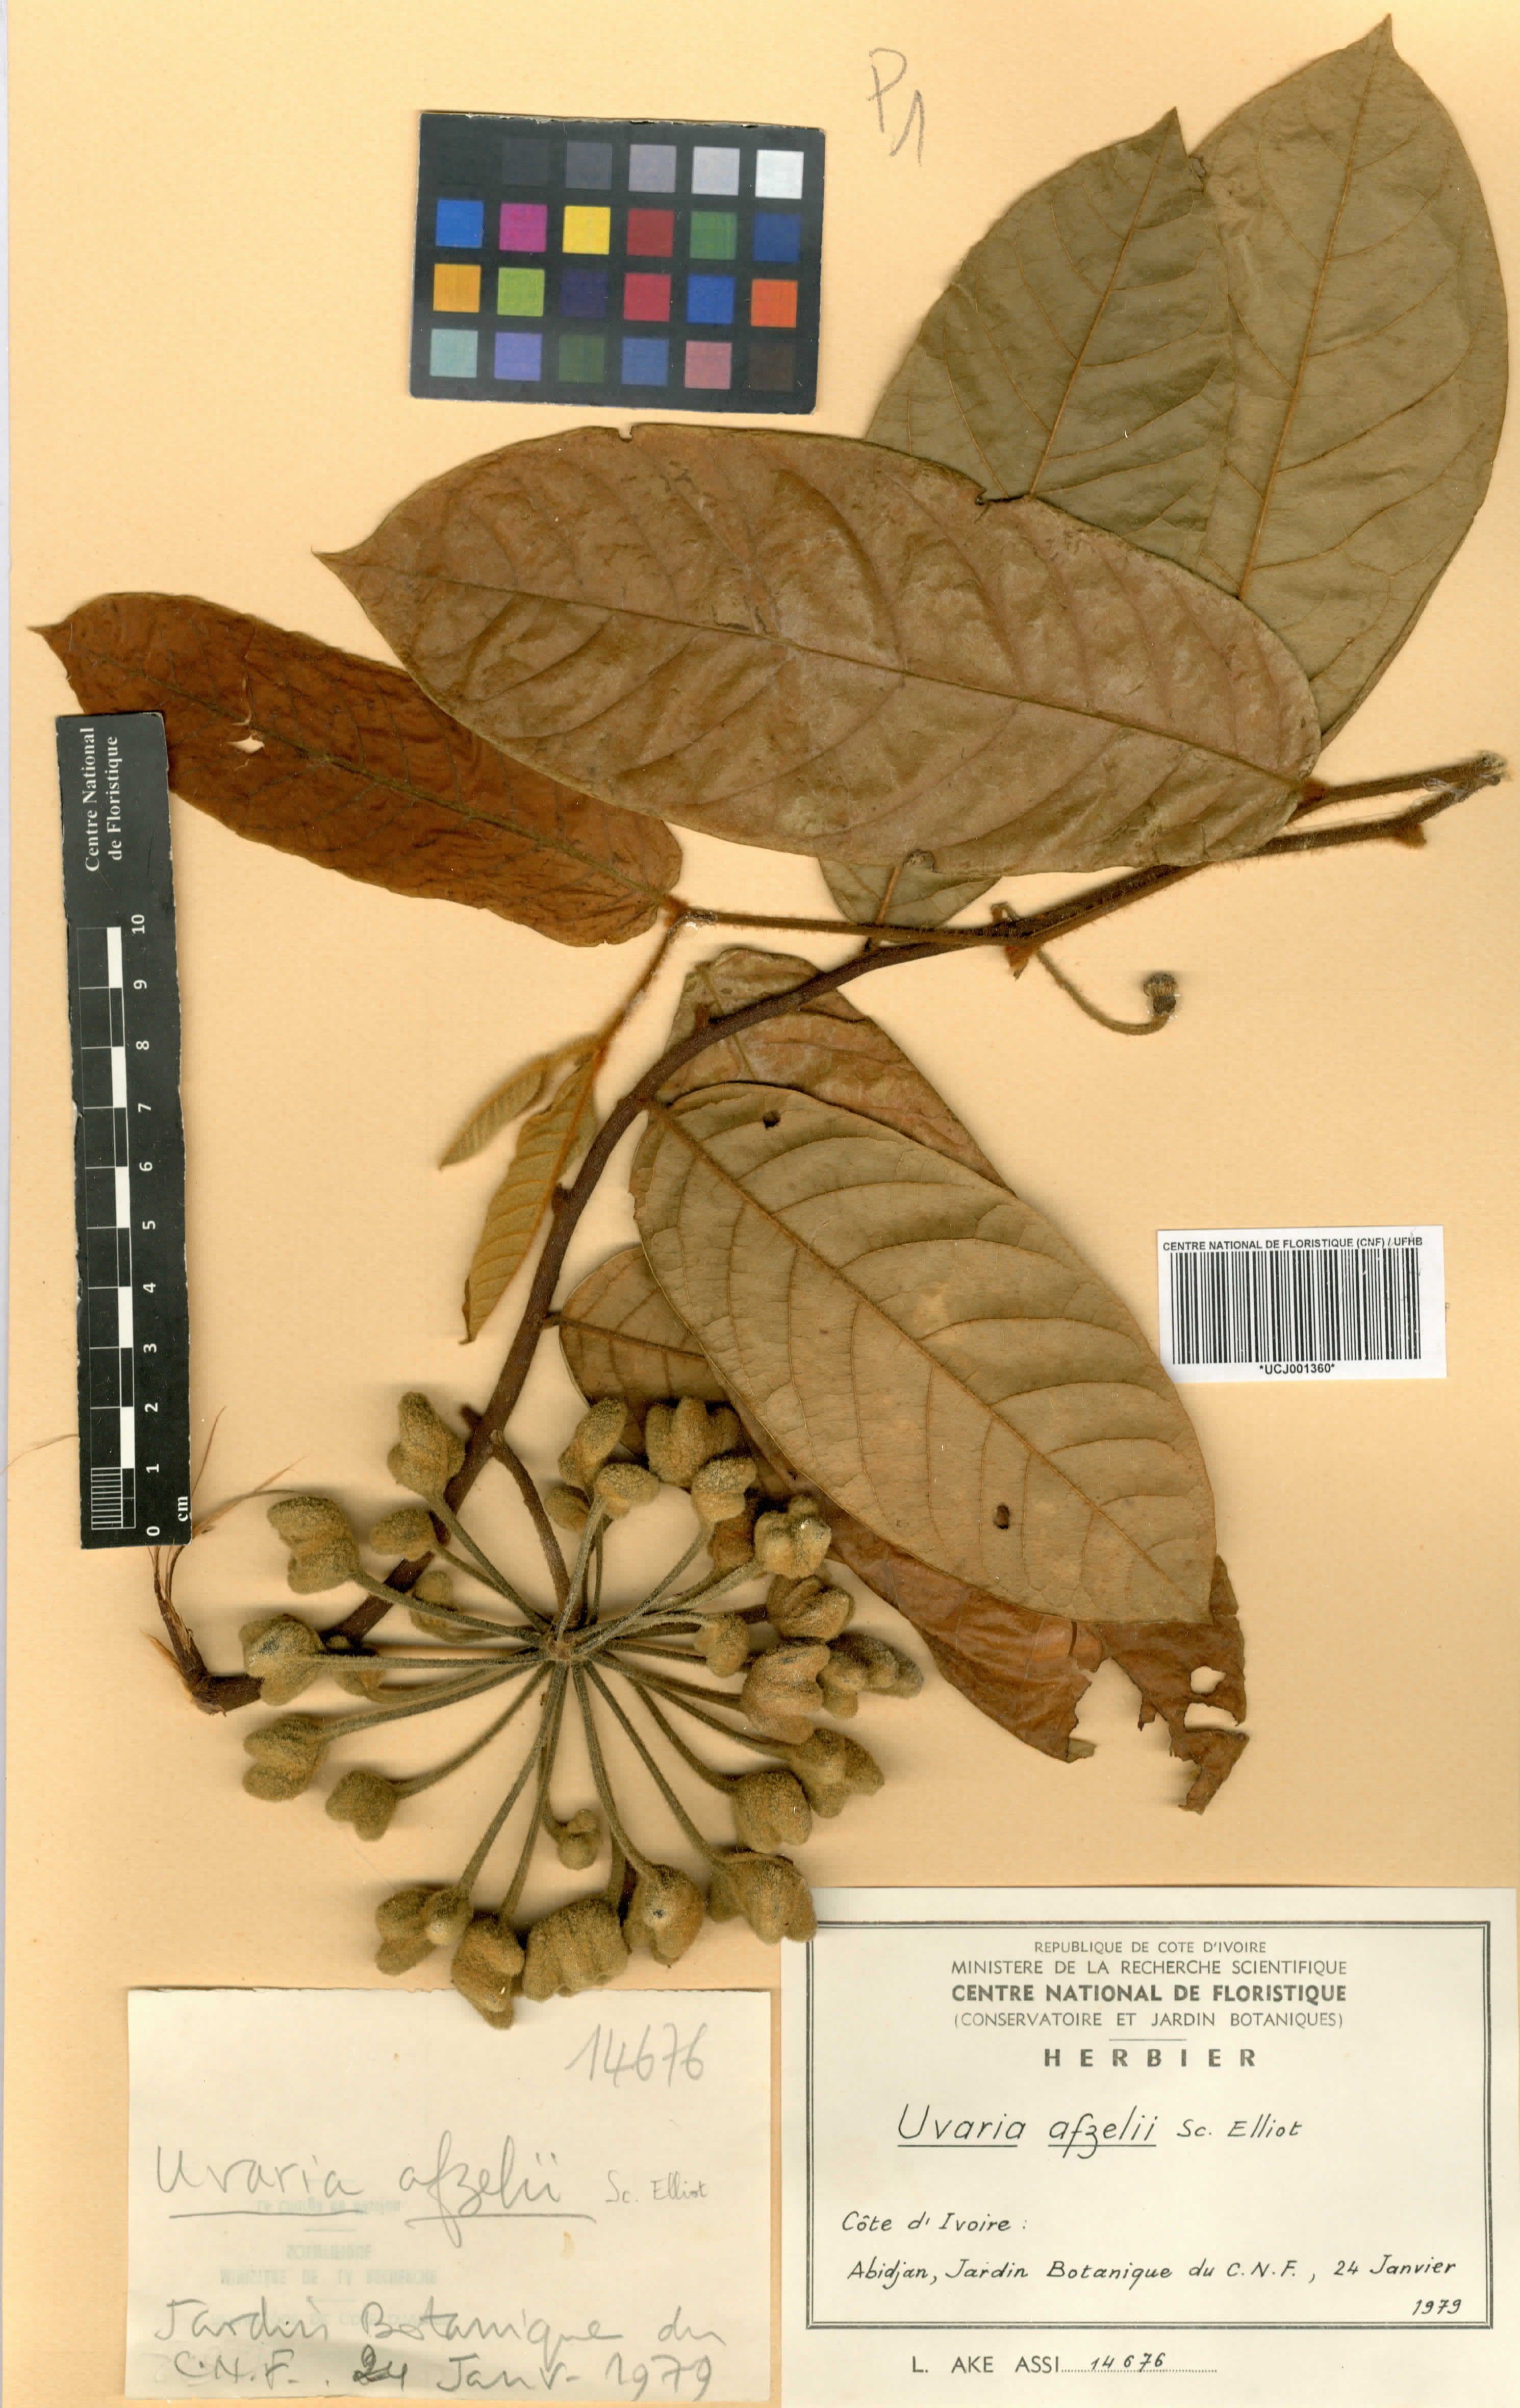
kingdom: Plantae
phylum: Tracheophyta
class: Magnoliopsida
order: Magnoliales
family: Annonaceae
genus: Uvaria
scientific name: Uvaria afzelii
